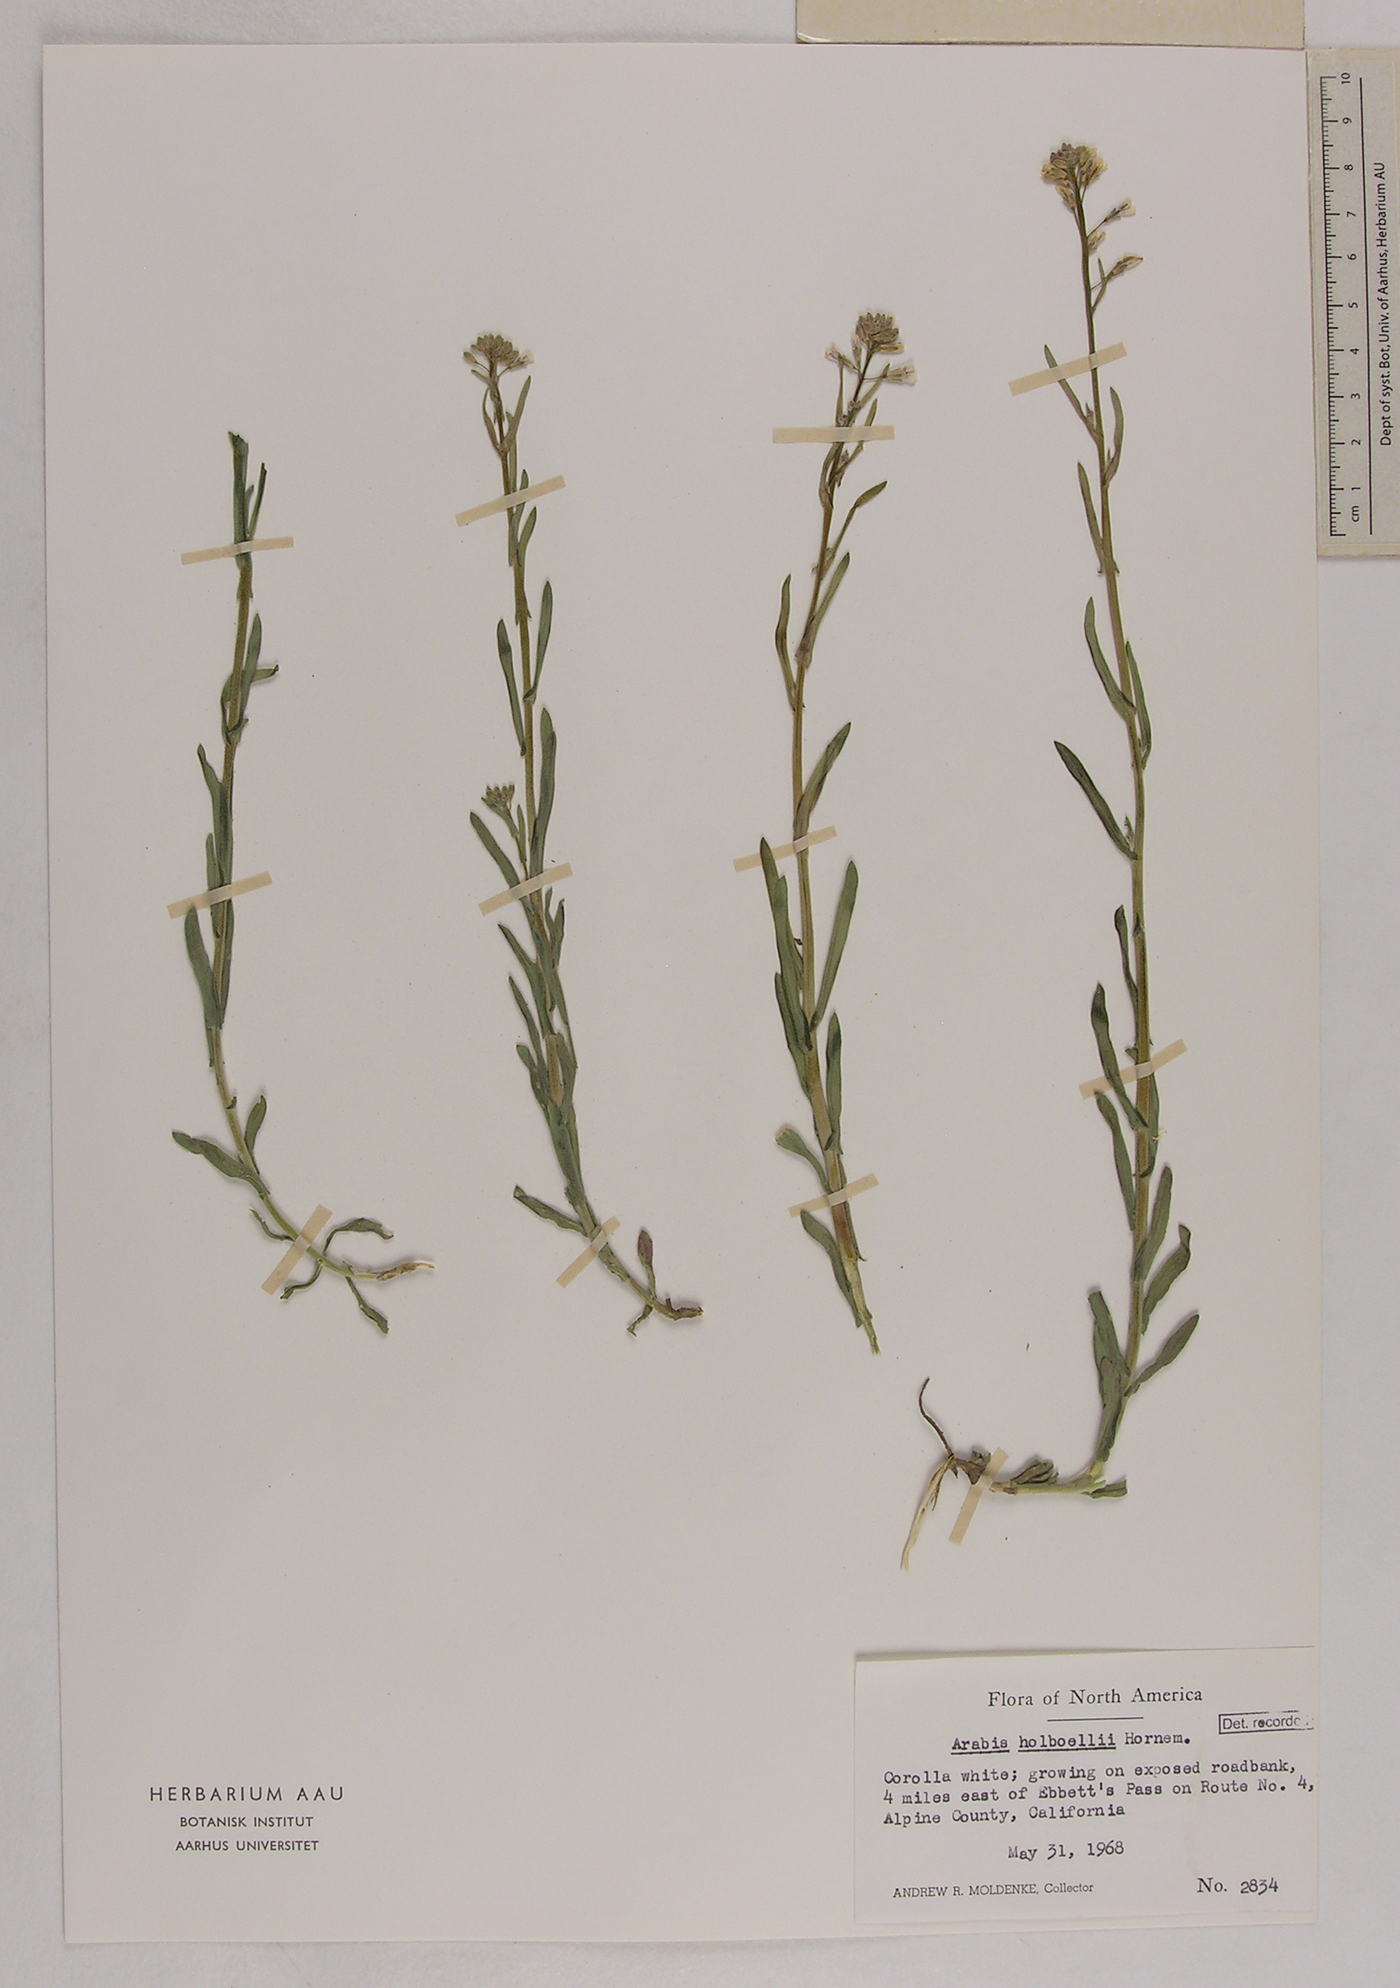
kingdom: Plantae
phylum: Tracheophyta
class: Magnoliopsida
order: Brassicales
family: Brassicaceae
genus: Boechera
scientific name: Boechera holboellii
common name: Holboell's rockcress
